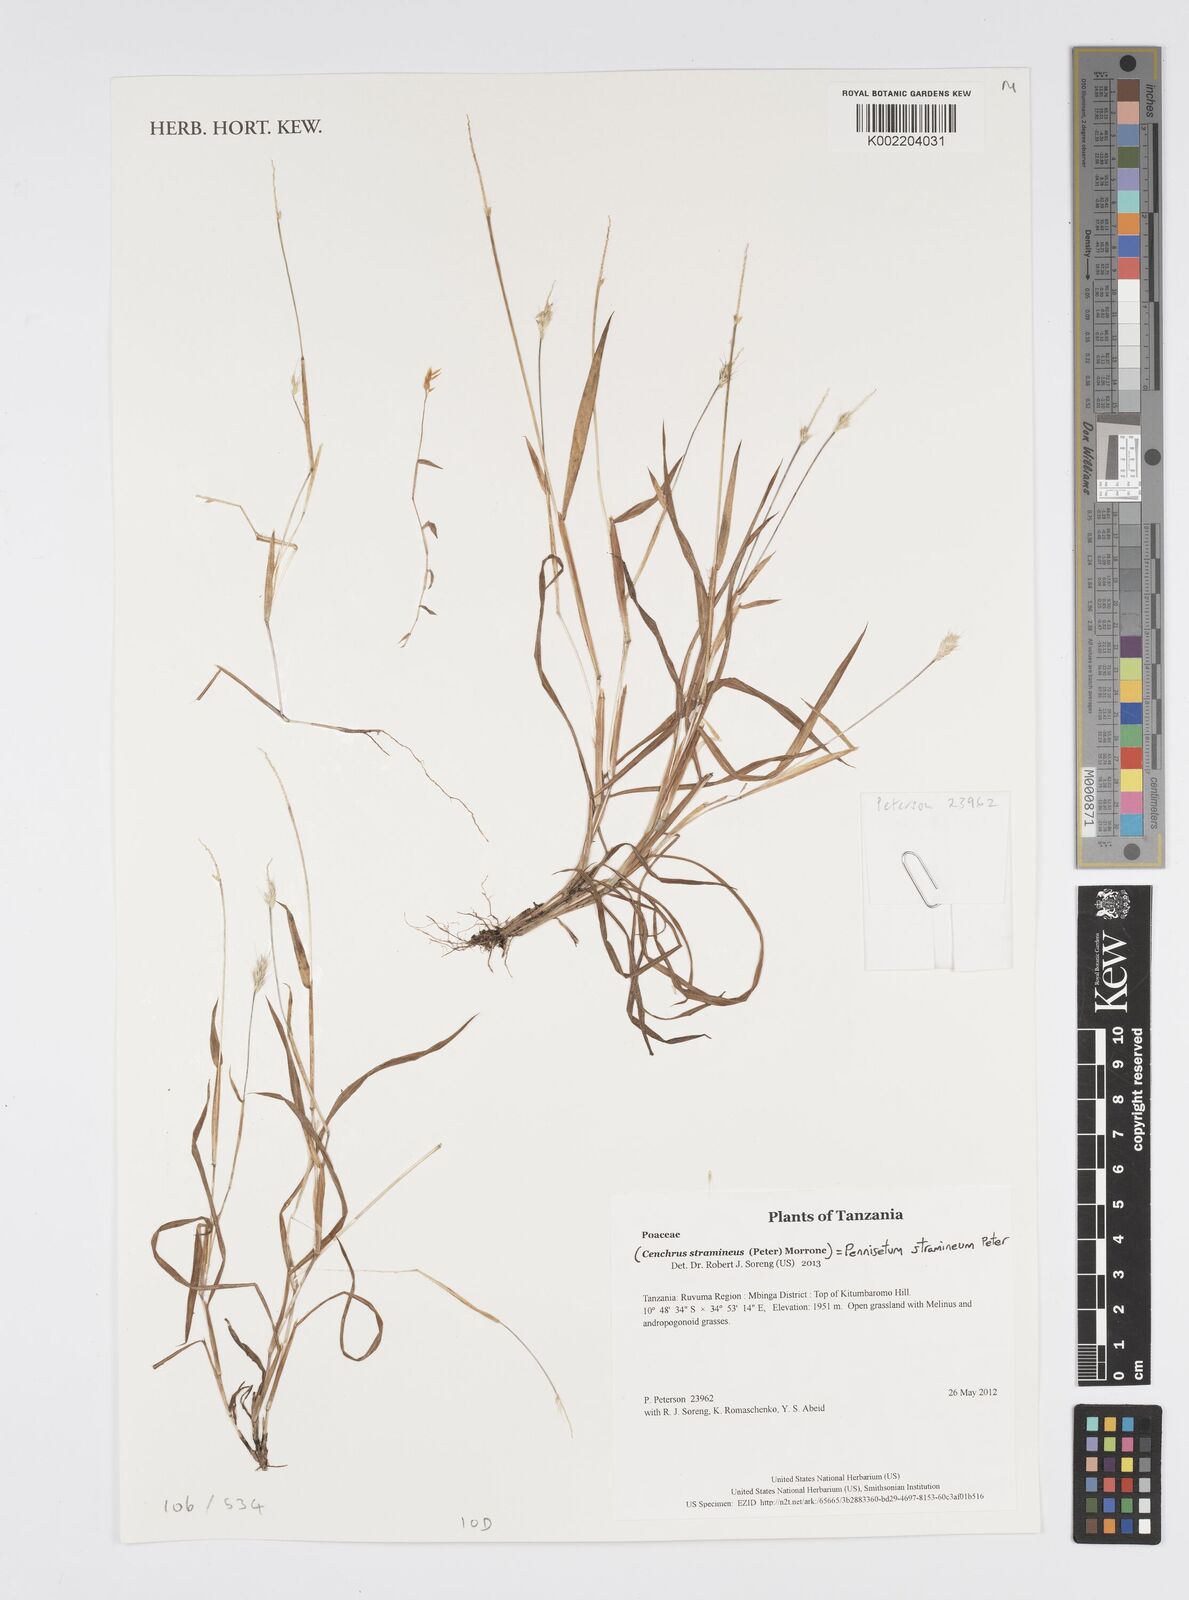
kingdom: Plantae
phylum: Tracheophyta
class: Liliopsida
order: Poales
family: Poaceae
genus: Cenchrus
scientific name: Cenchrus stramineus
